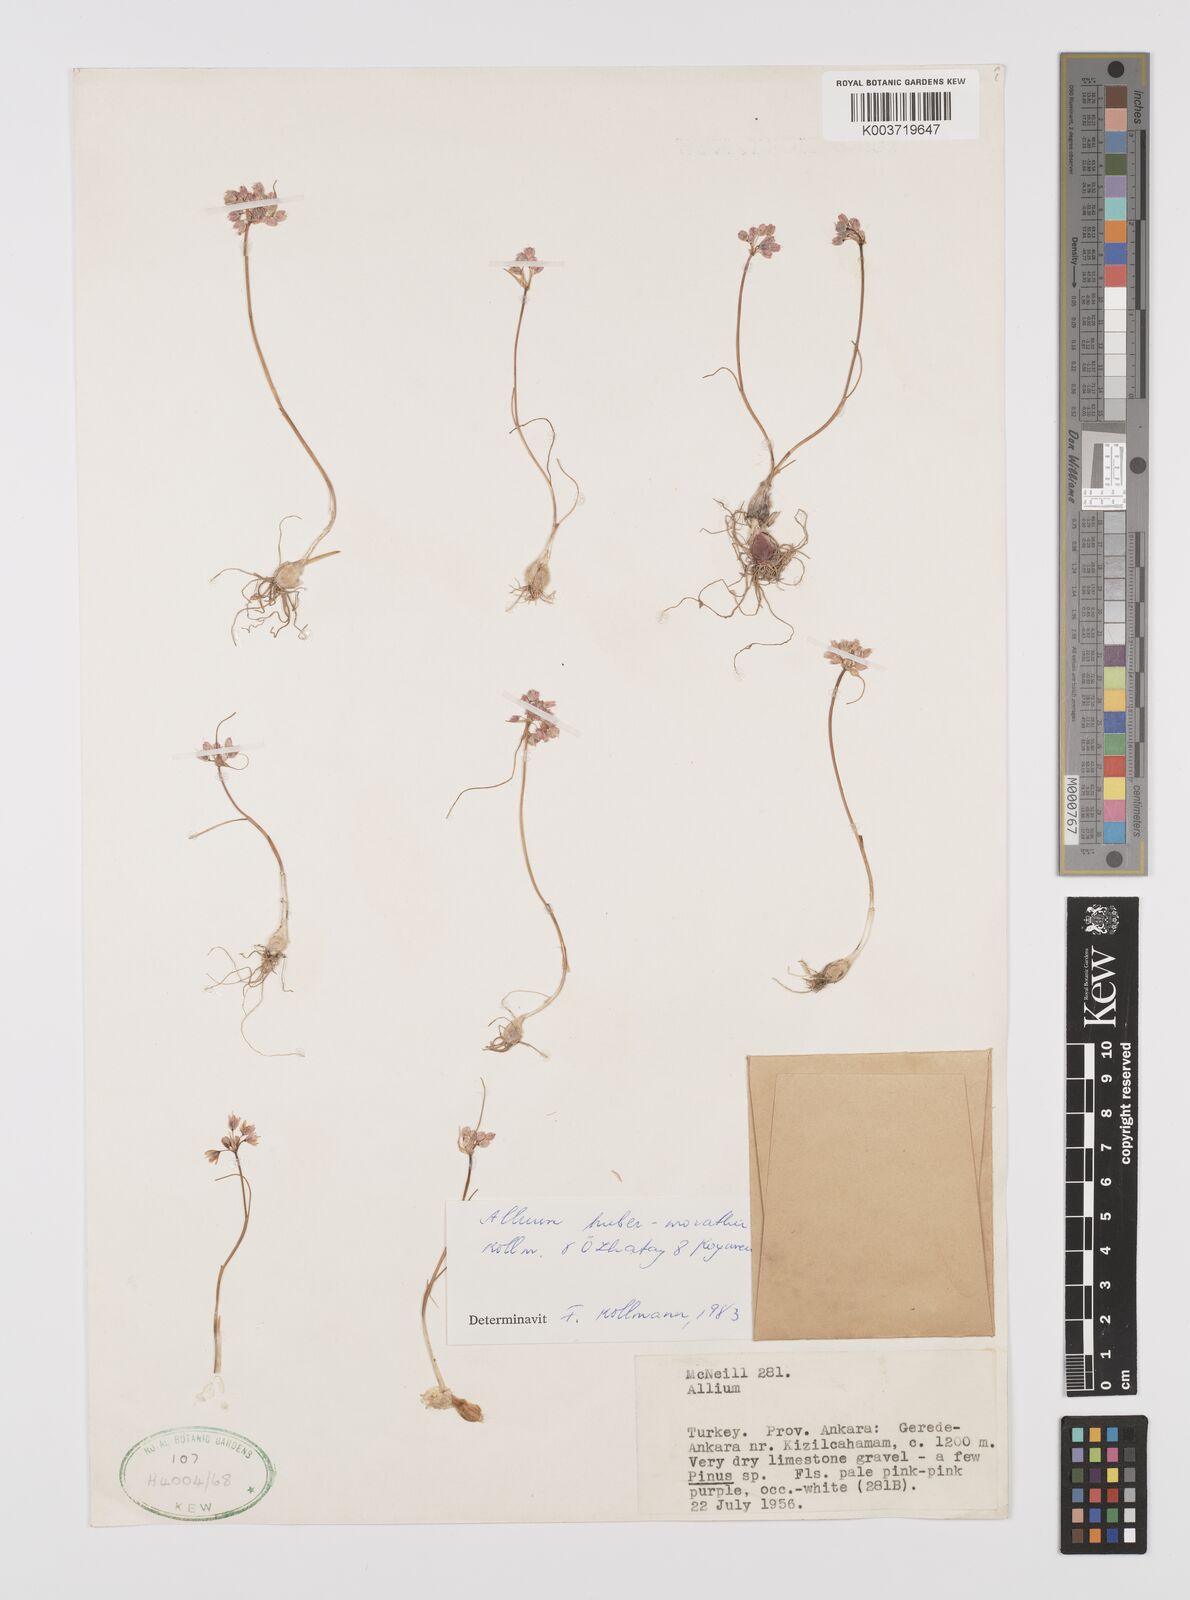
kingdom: Plantae
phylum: Tracheophyta
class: Liliopsida
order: Asparagales
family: Amaryllidaceae
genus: Allium
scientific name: Allium huber-morathii
